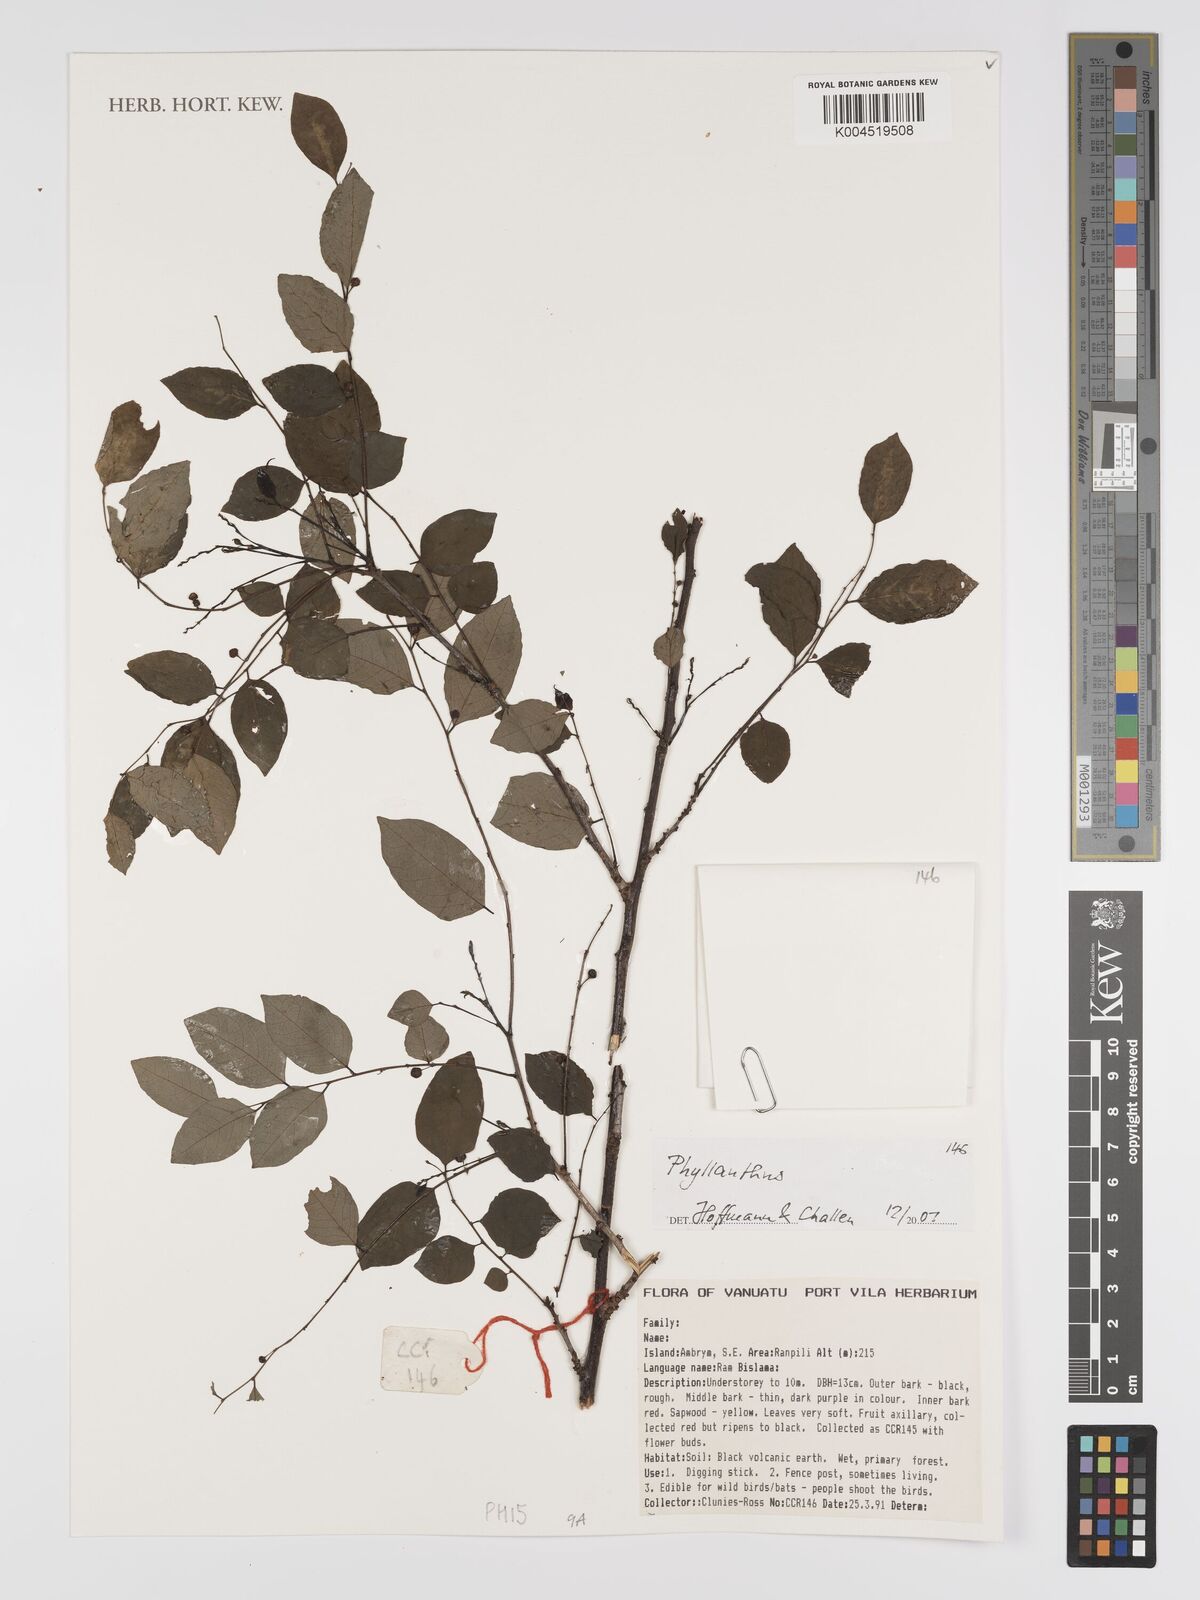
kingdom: Plantae
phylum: Tracheophyta
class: Magnoliopsida
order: Malpighiales
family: Phyllanthaceae
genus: Phyllanthus
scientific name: Phyllanthus
